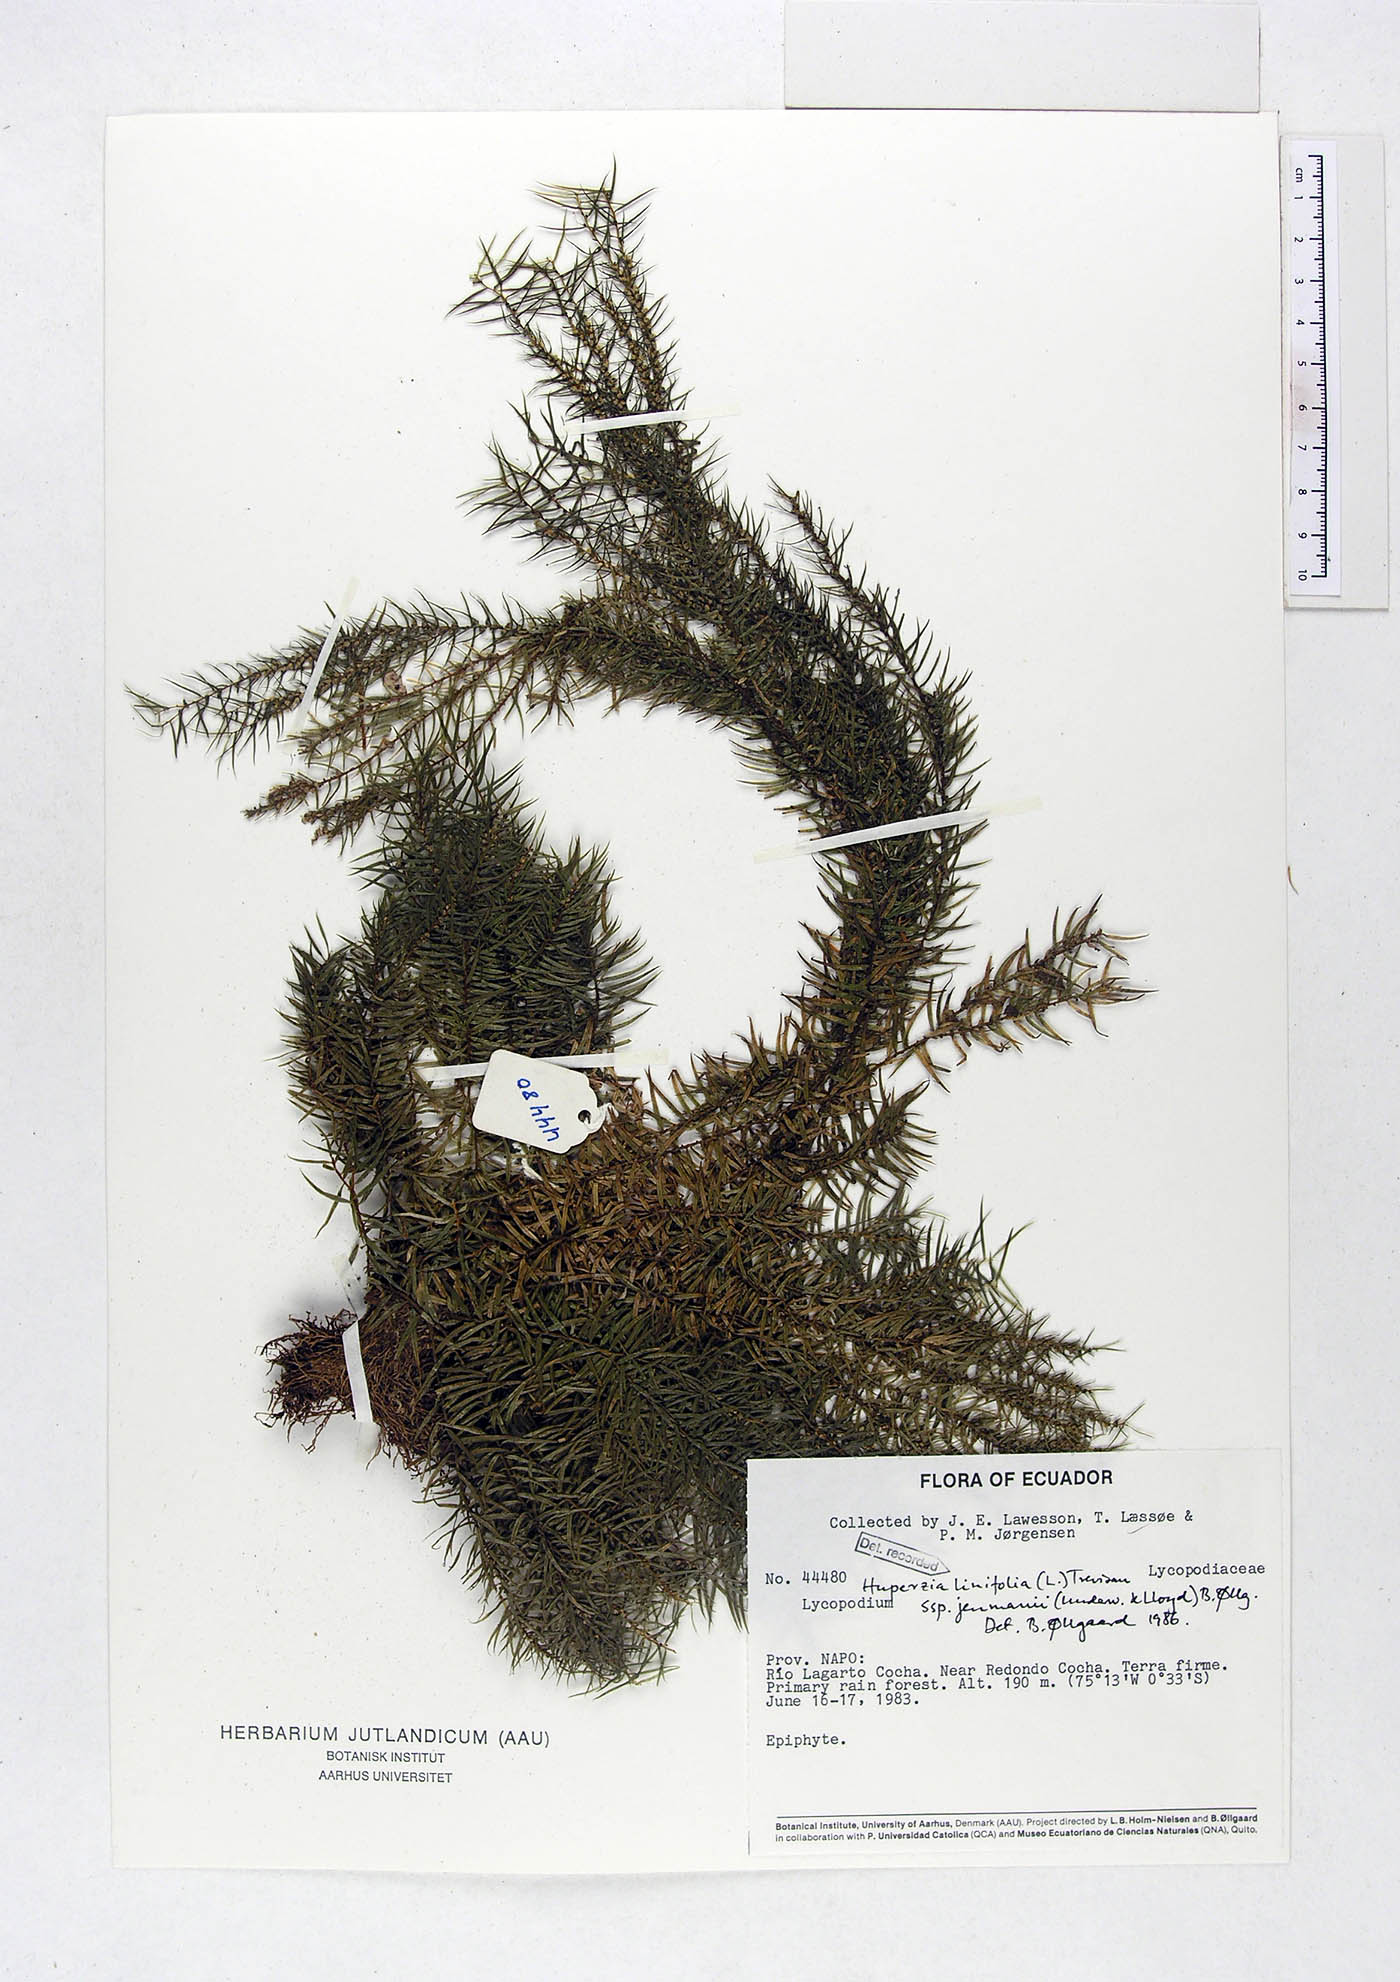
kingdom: Plantae
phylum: Tracheophyta
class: Lycopodiopsida
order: Lycopodiales
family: Lycopodiaceae
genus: Phlegmariurus
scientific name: Phlegmariurus linifolius
